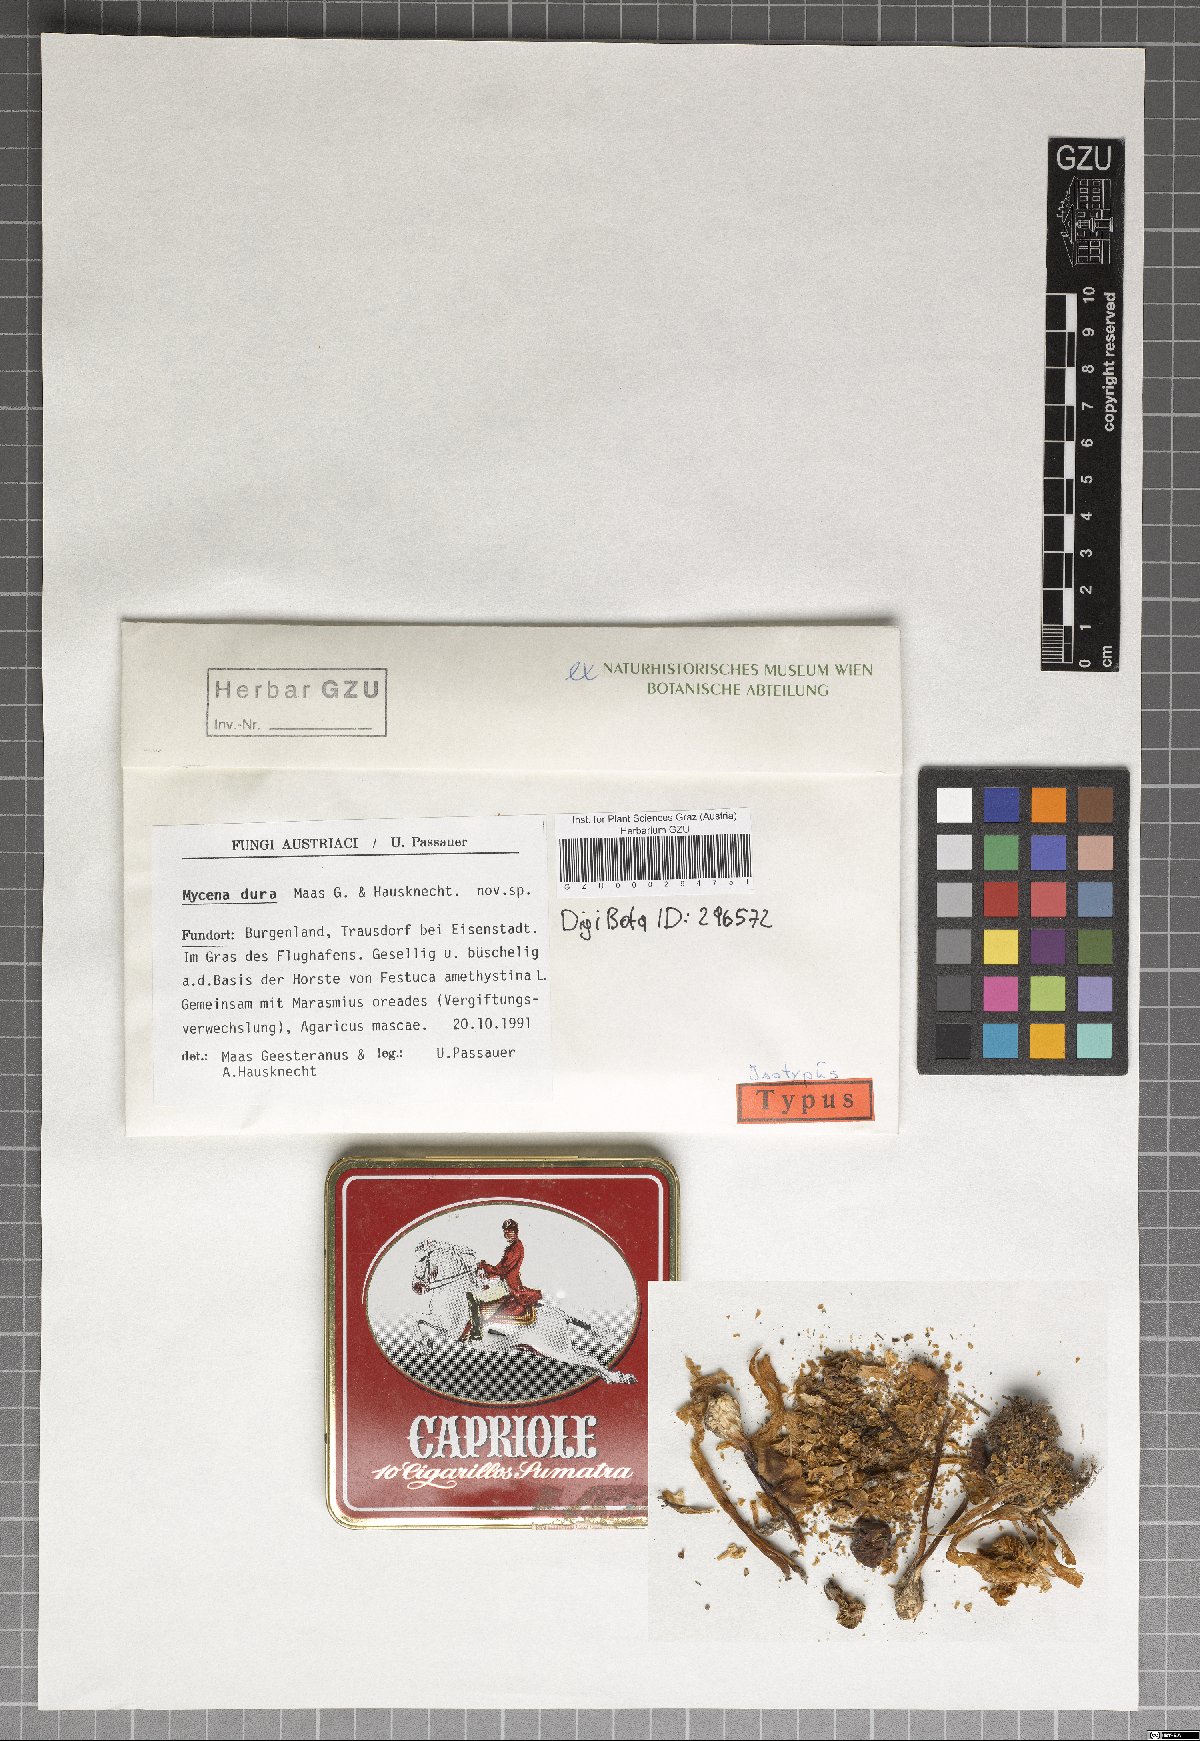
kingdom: Fungi
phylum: Basidiomycota
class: Agaricomycetes
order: Agaricales
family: Mycenaceae
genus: Mycena
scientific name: Mycena dura
